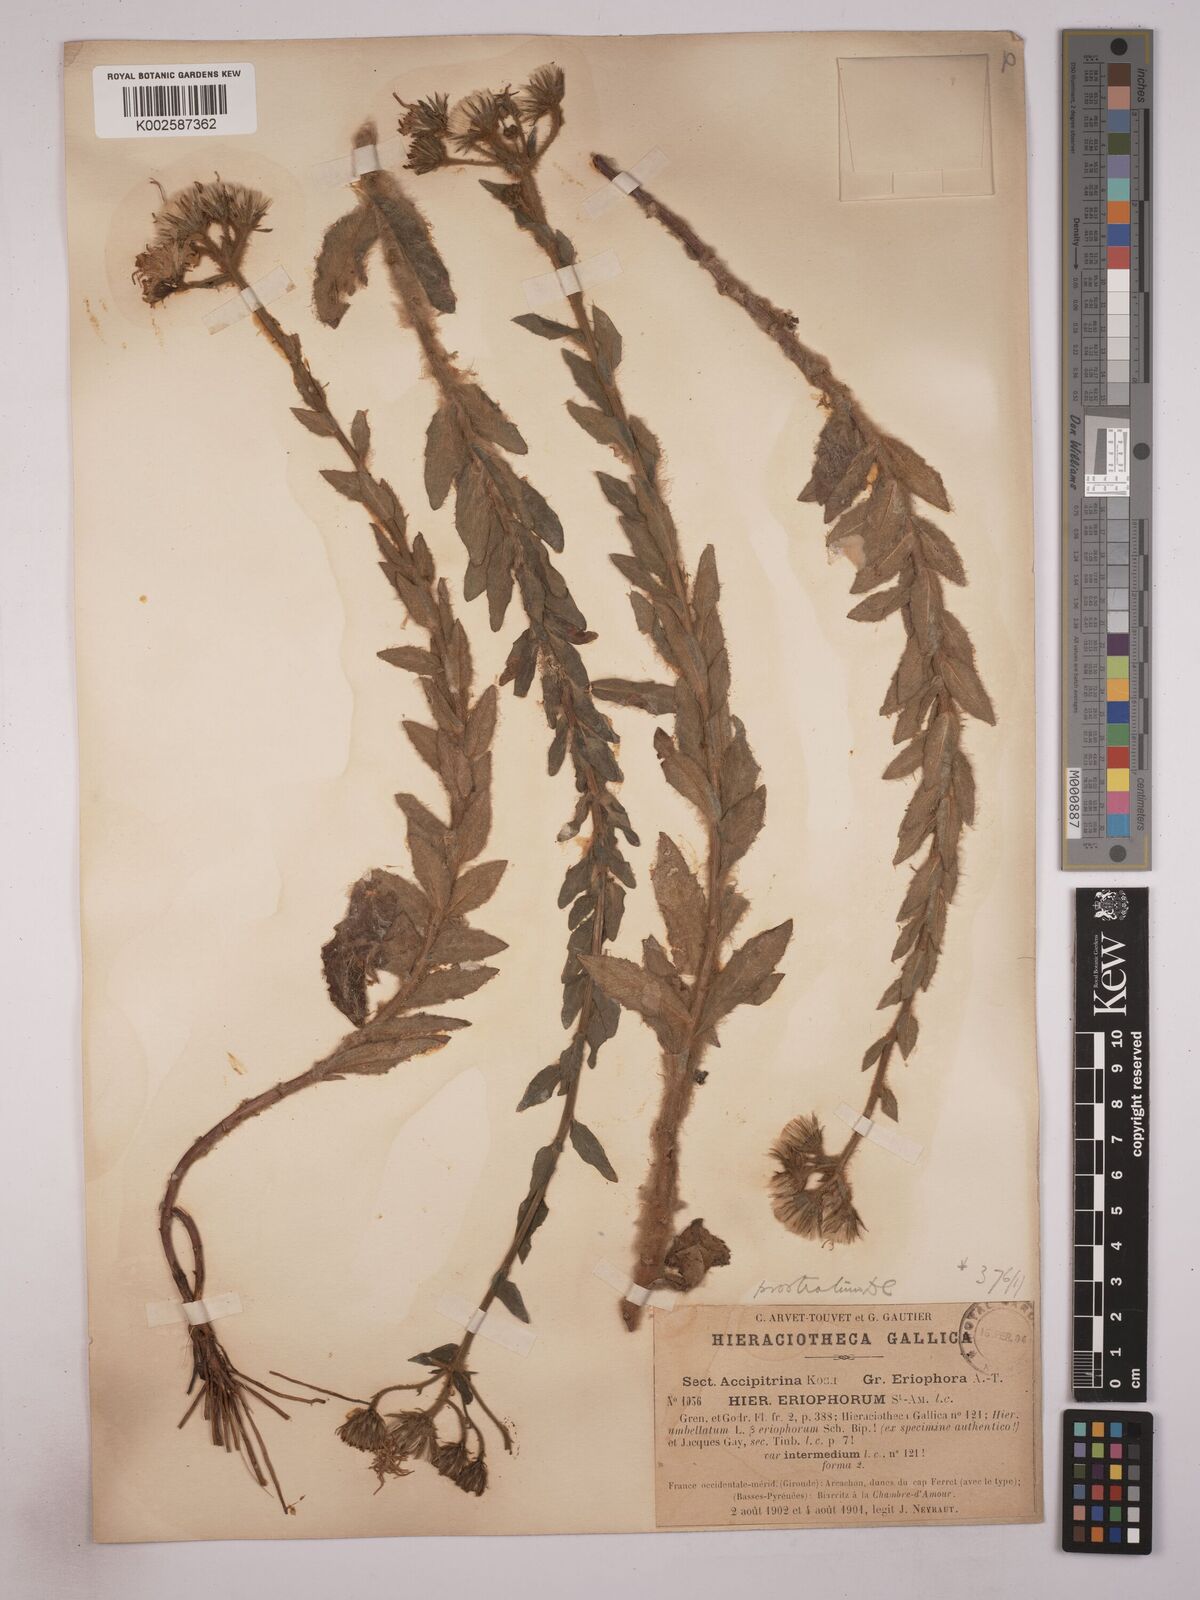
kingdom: Plantae
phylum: Tracheophyta
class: Magnoliopsida
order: Asterales
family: Asteraceae
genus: Hieracium
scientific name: Hieracium prostratum
